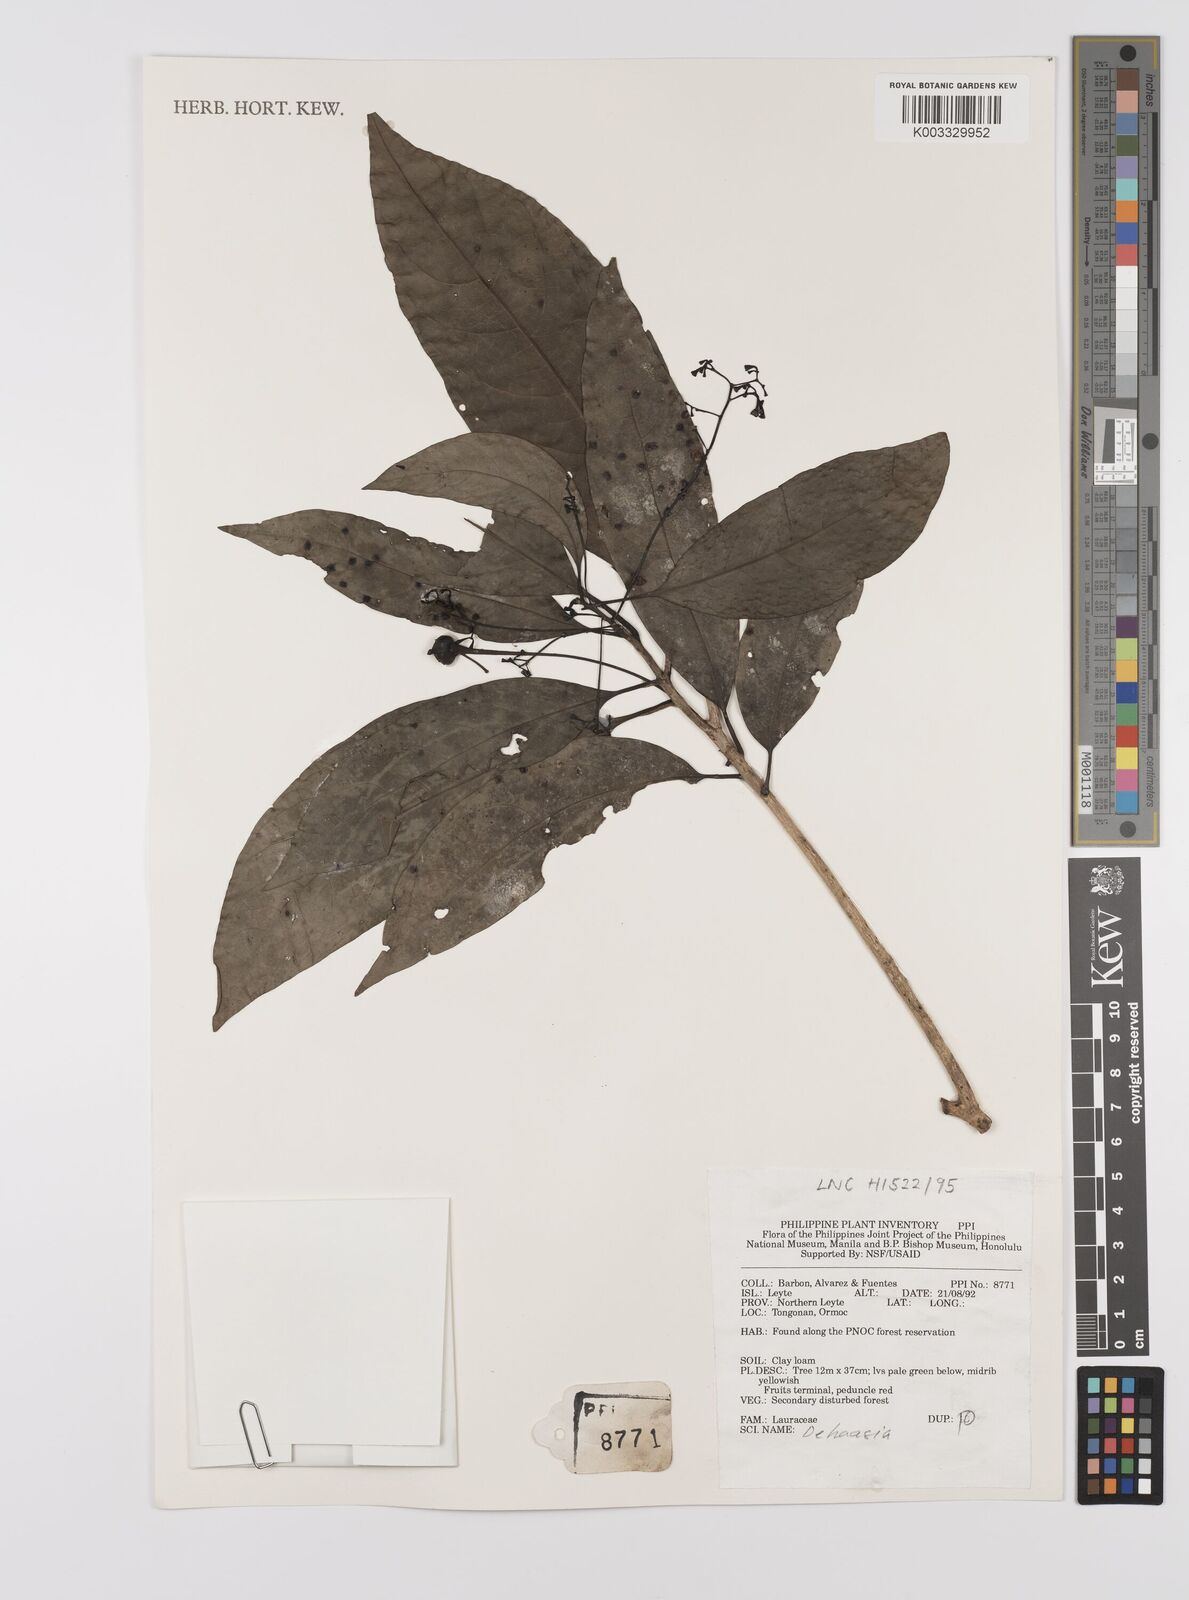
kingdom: Plantae
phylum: Tracheophyta
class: Magnoliopsida
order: Laurales
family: Lauraceae
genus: Dehaasia
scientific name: Dehaasia
